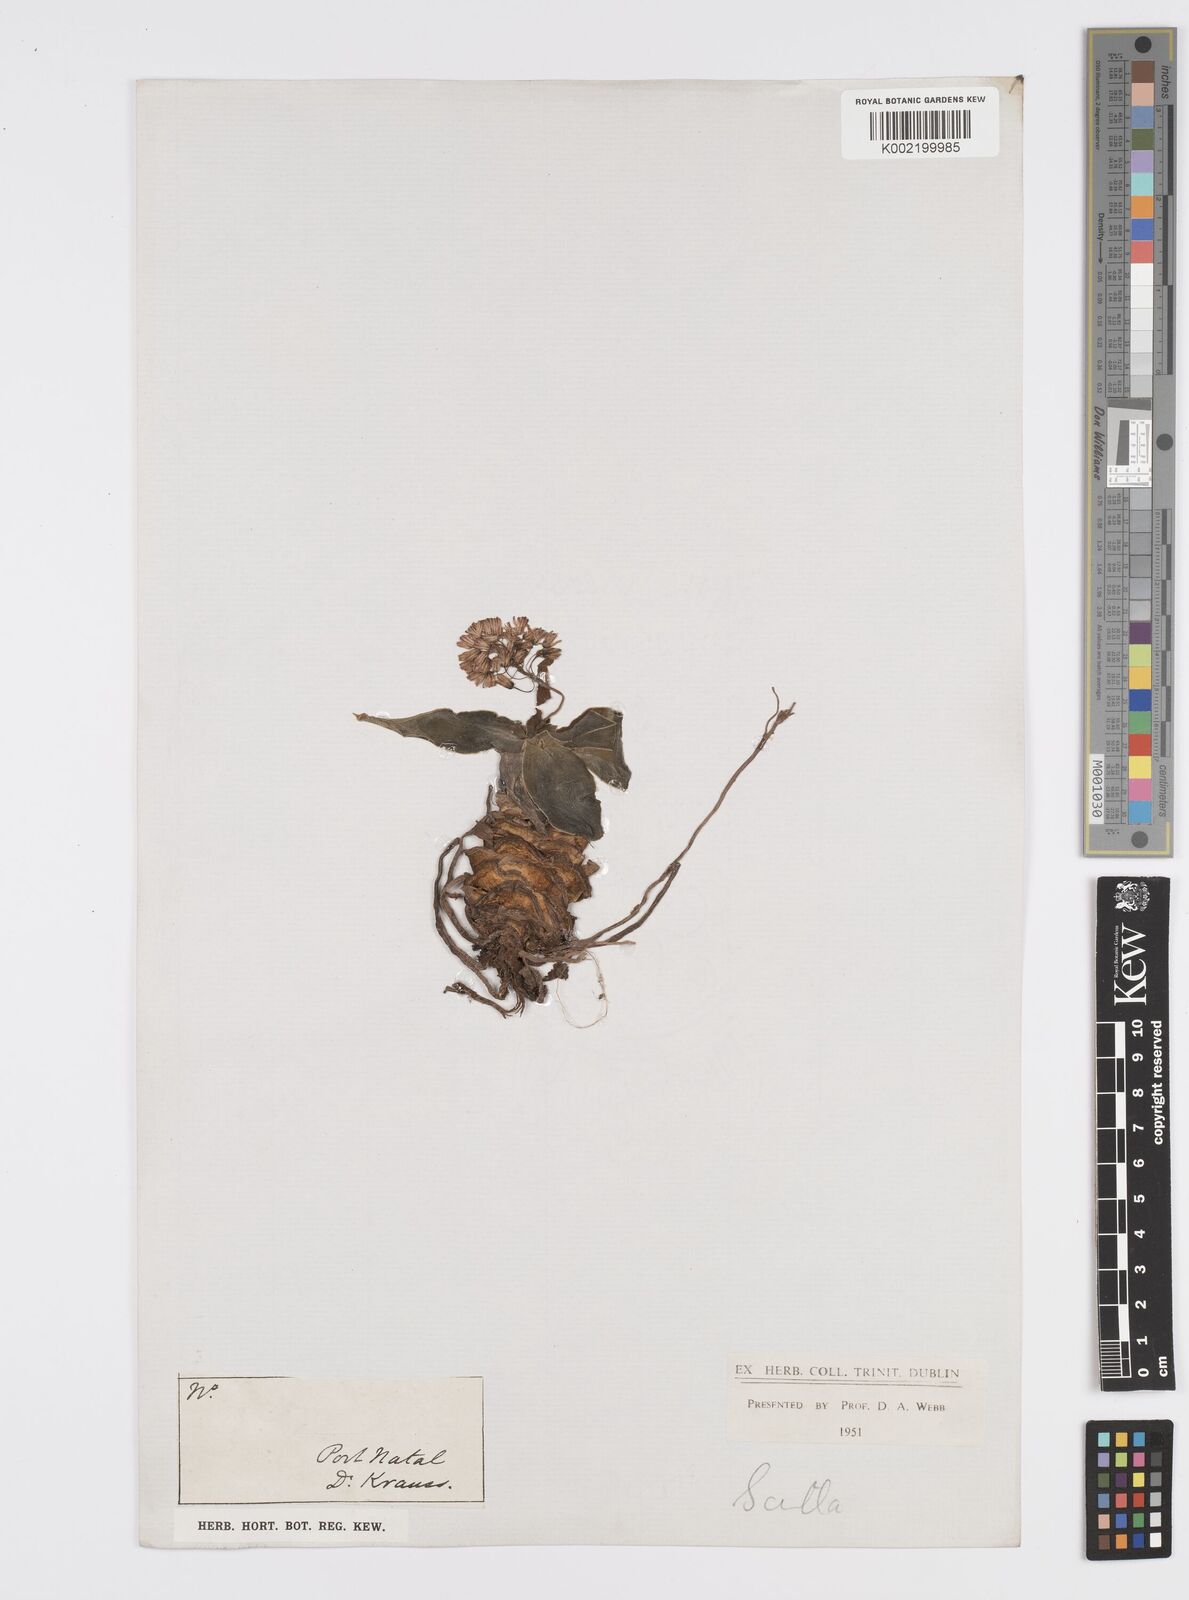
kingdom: Plantae
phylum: Tracheophyta
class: Liliopsida
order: Asparagales
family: Asparagaceae
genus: Ledebouria
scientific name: Ledebouria ovatifolia
